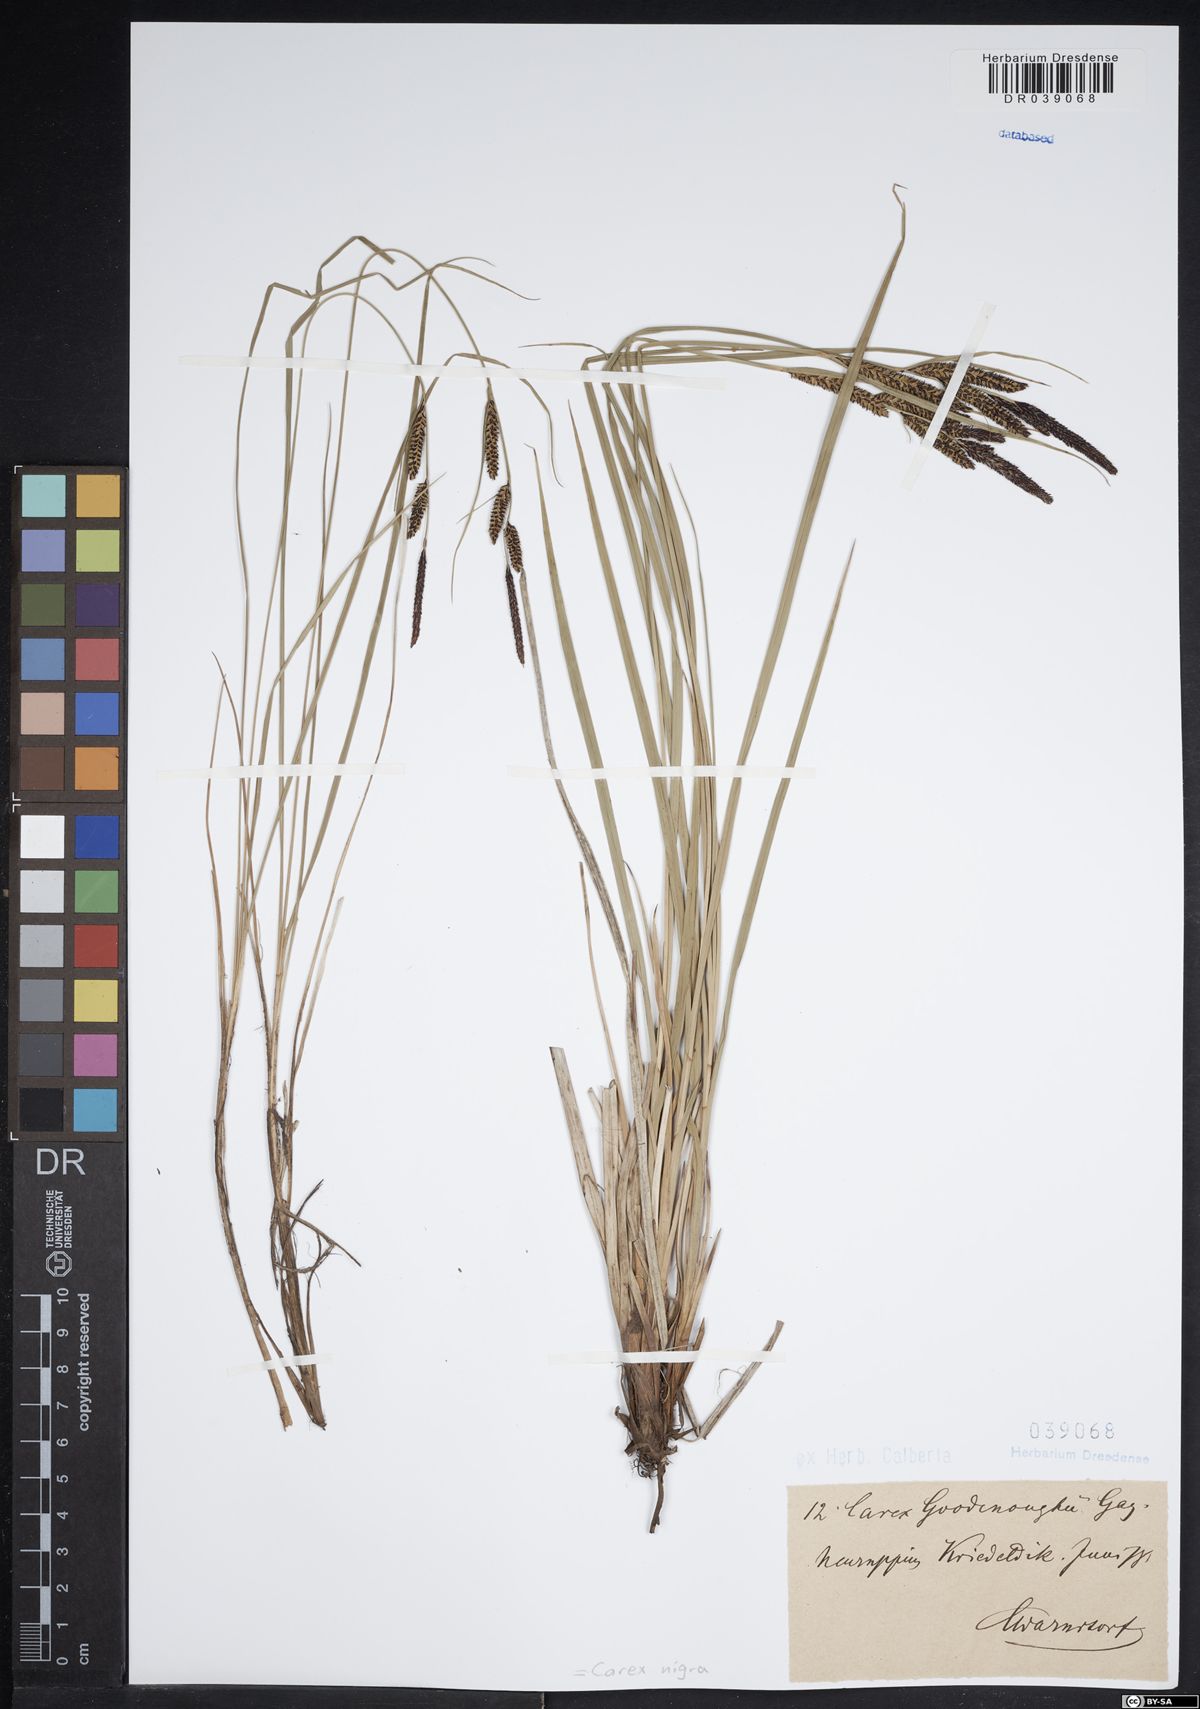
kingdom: Plantae
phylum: Tracheophyta
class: Liliopsida
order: Poales
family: Cyperaceae
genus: Carex
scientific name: Carex nigra
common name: Common sedge
